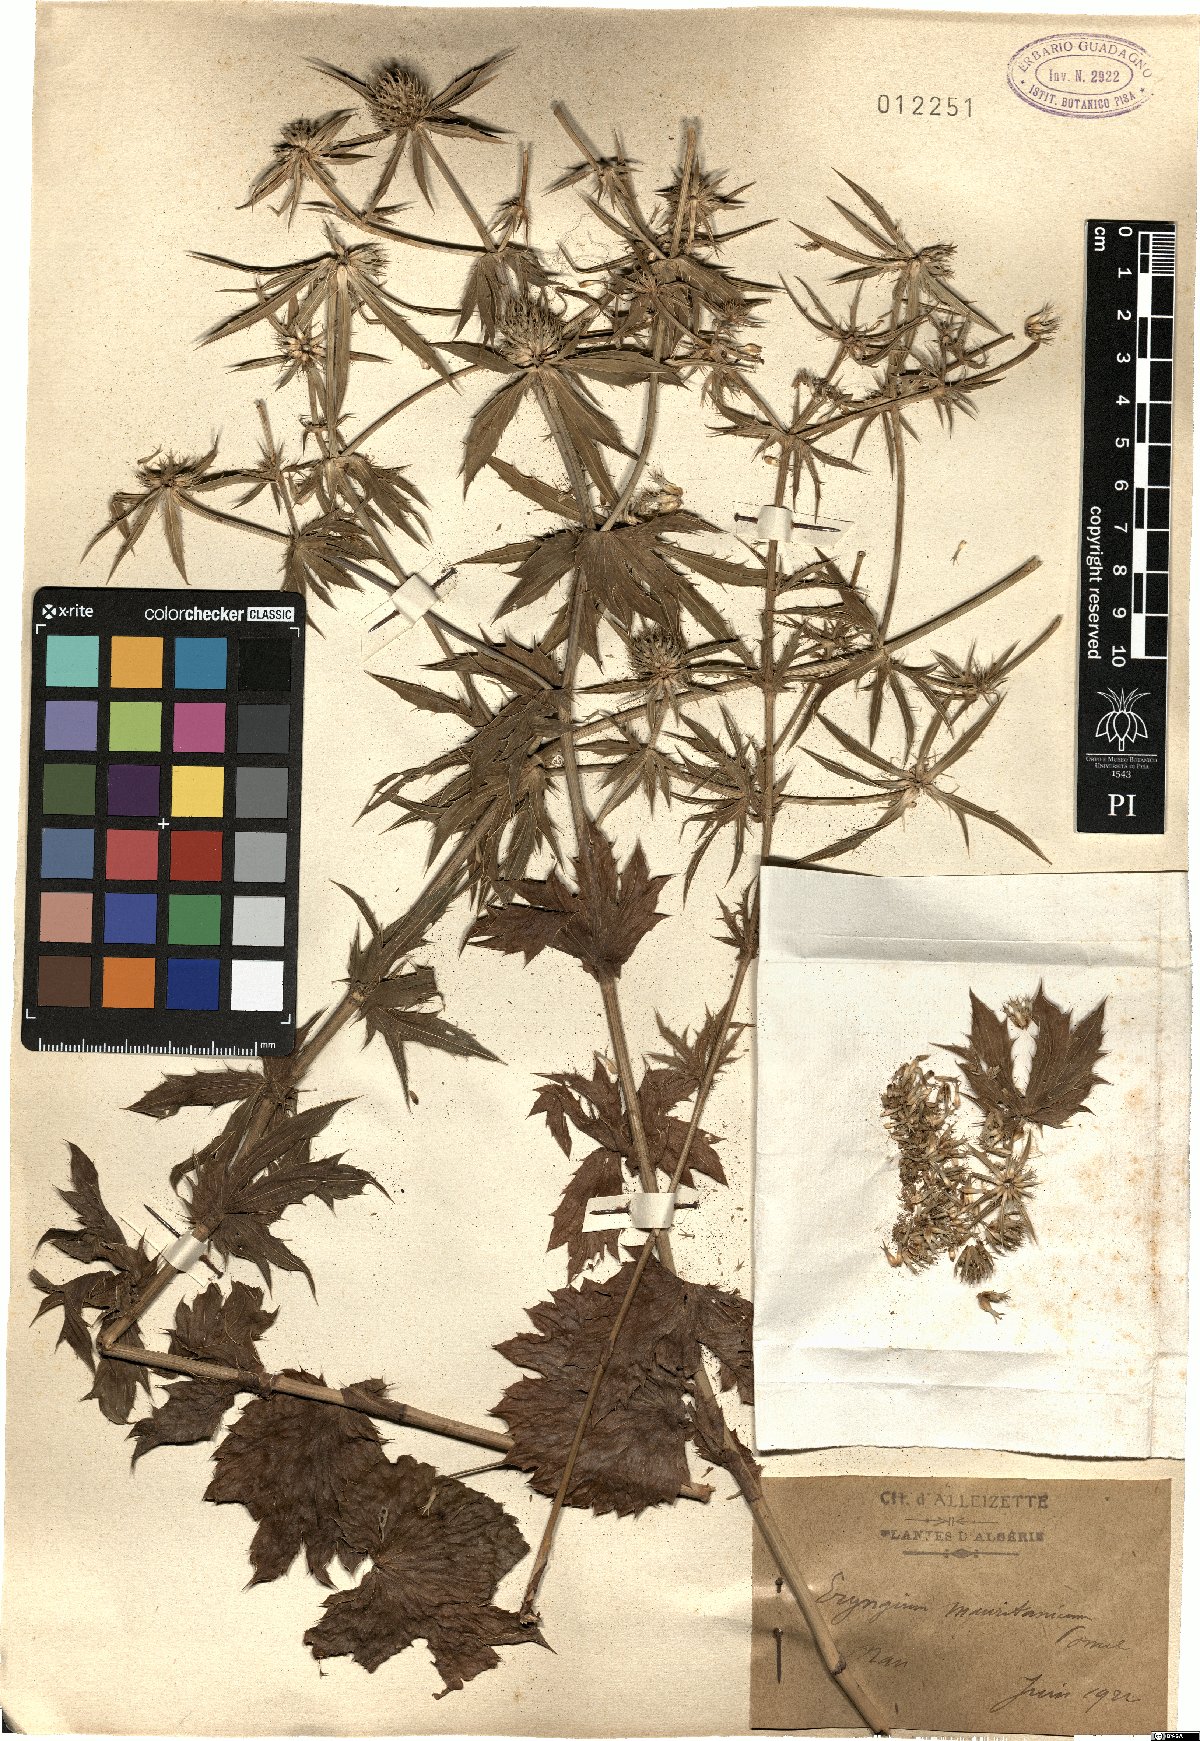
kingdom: Plantae
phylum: Tracheophyta
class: Magnoliopsida
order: Apiales
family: Apiaceae
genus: Eryngium
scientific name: Eryngium tricuspidatum
